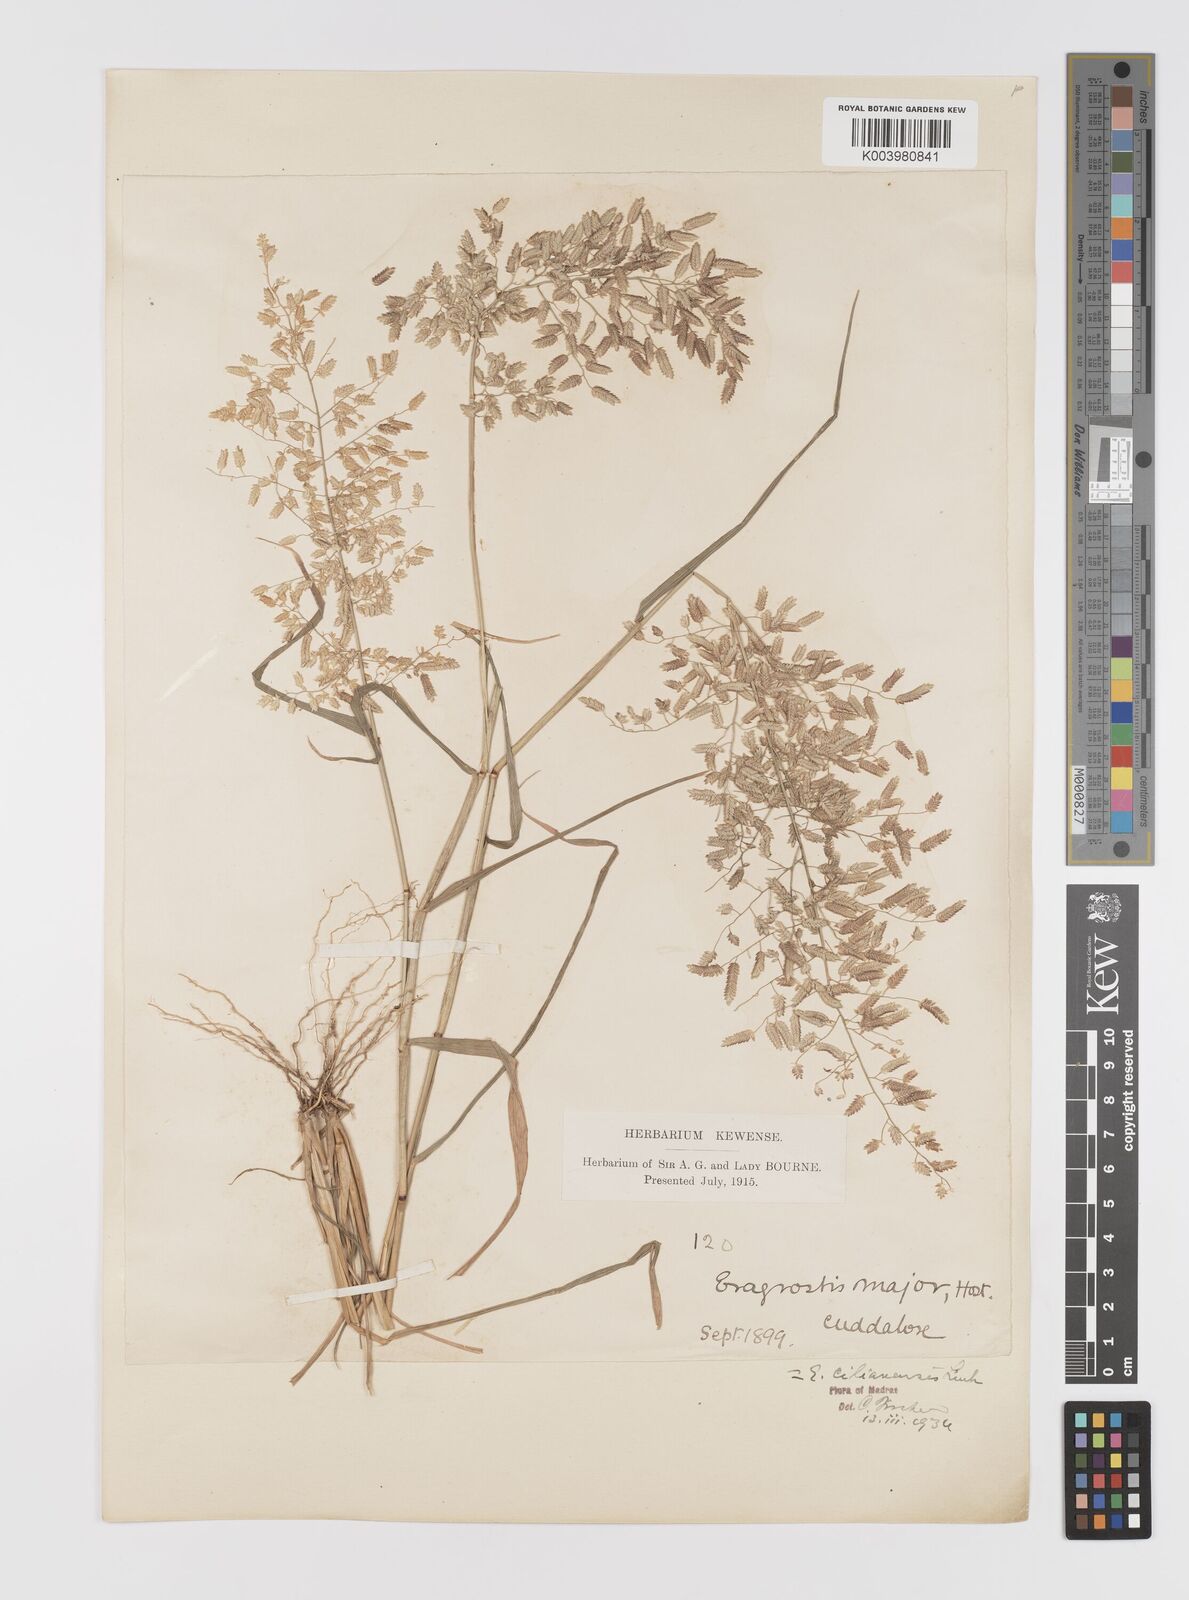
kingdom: Plantae
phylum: Tracheophyta
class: Liliopsida
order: Poales
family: Poaceae
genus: Eragrostis
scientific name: Eragrostis cilianensis
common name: Stinkgrass
